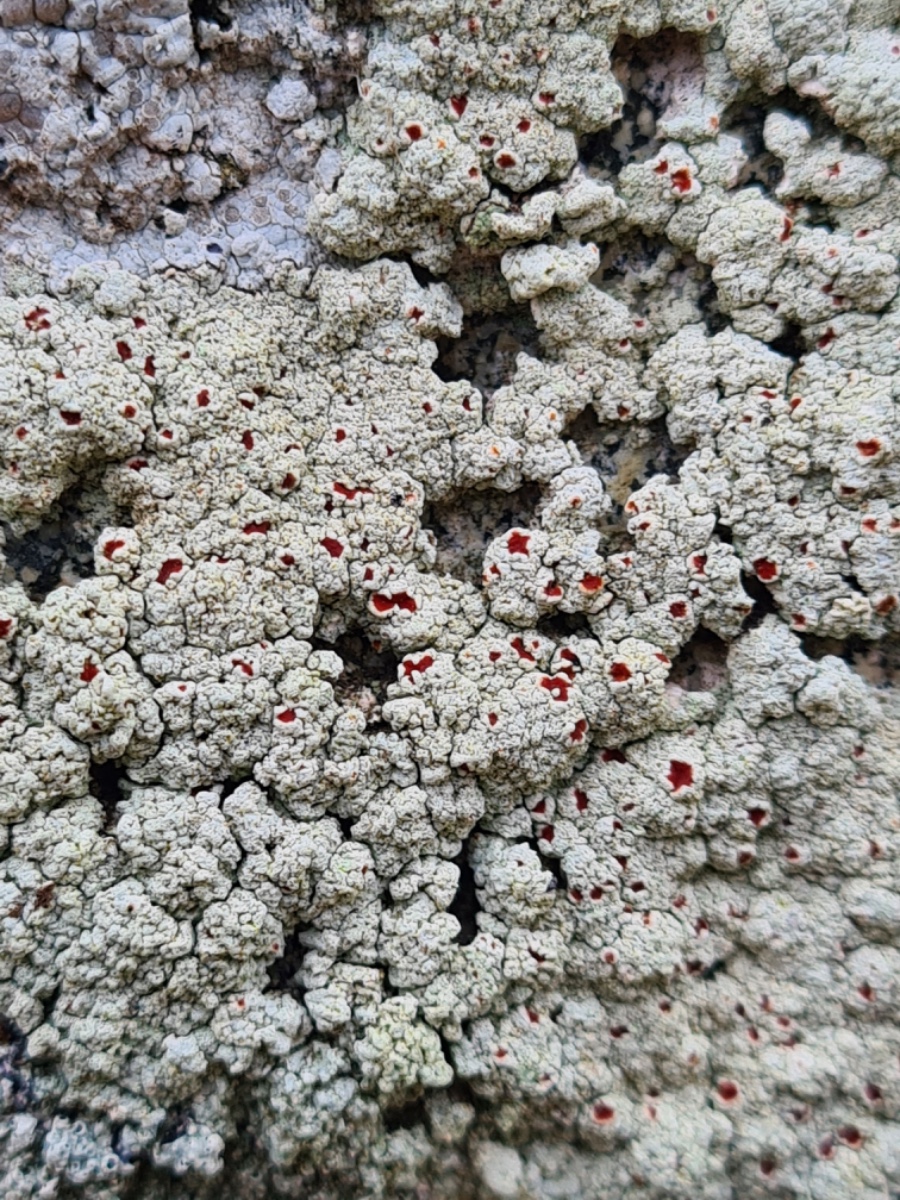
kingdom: Fungi
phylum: Ascomycota
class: Lecanoromycetes
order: Lecanorales
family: Haematommataceae
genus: Haematomma
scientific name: Haematomma ochroleucum
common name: gul trådkantlav
